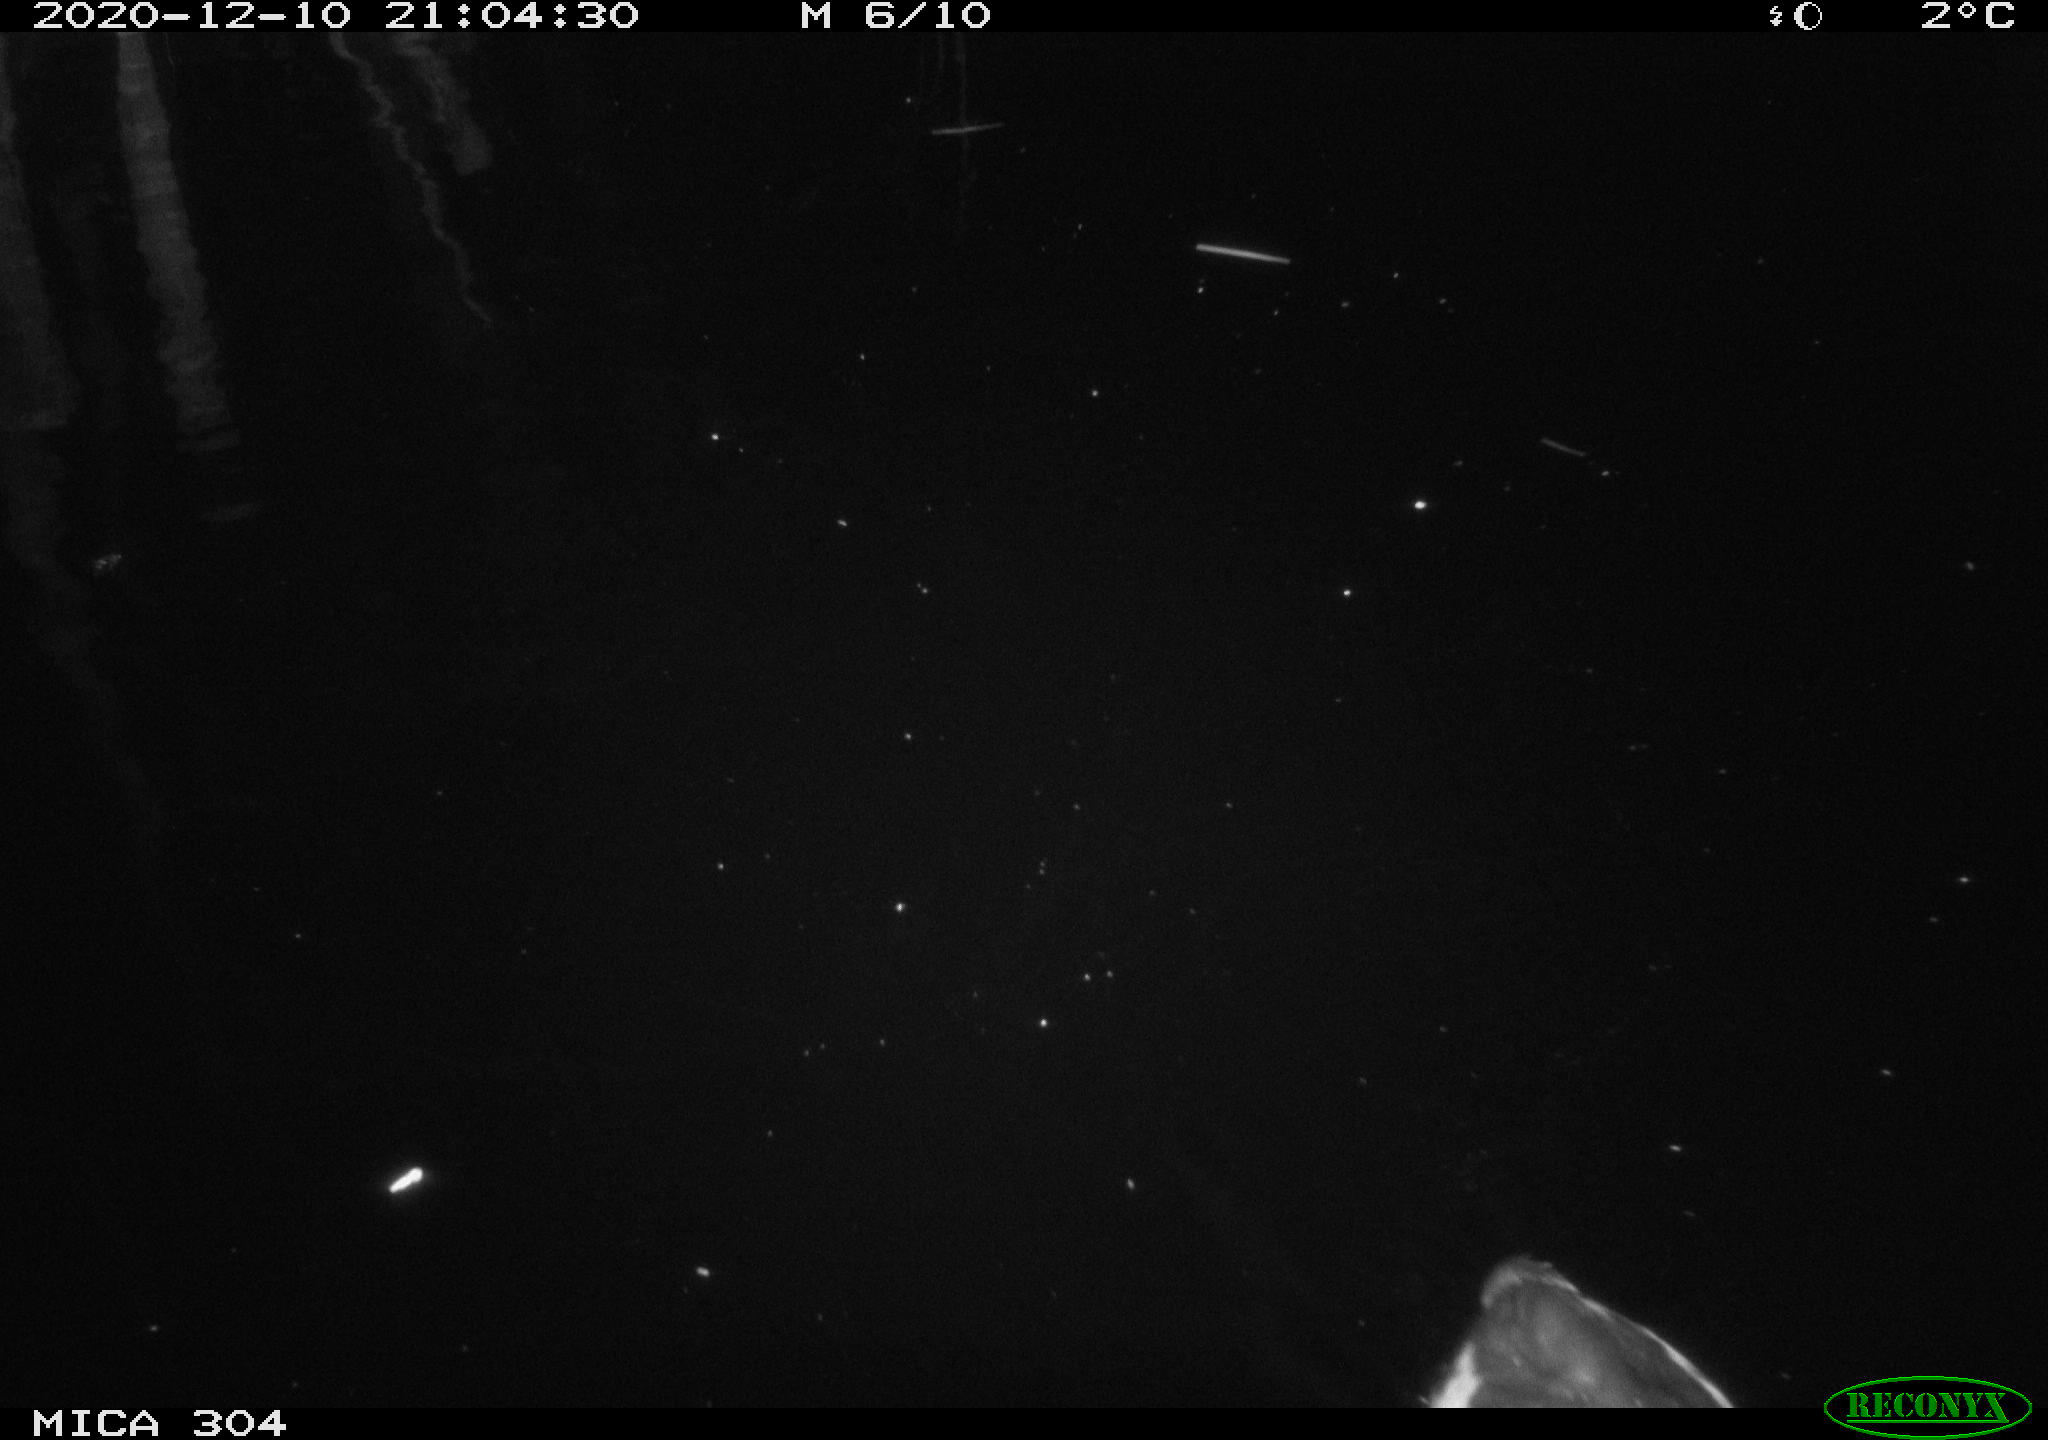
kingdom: Animalia
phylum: Chordata
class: Aves
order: Gruiformes
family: Rallidae
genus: Gallinula
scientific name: Gallinula chloropus
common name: Common moorhen
